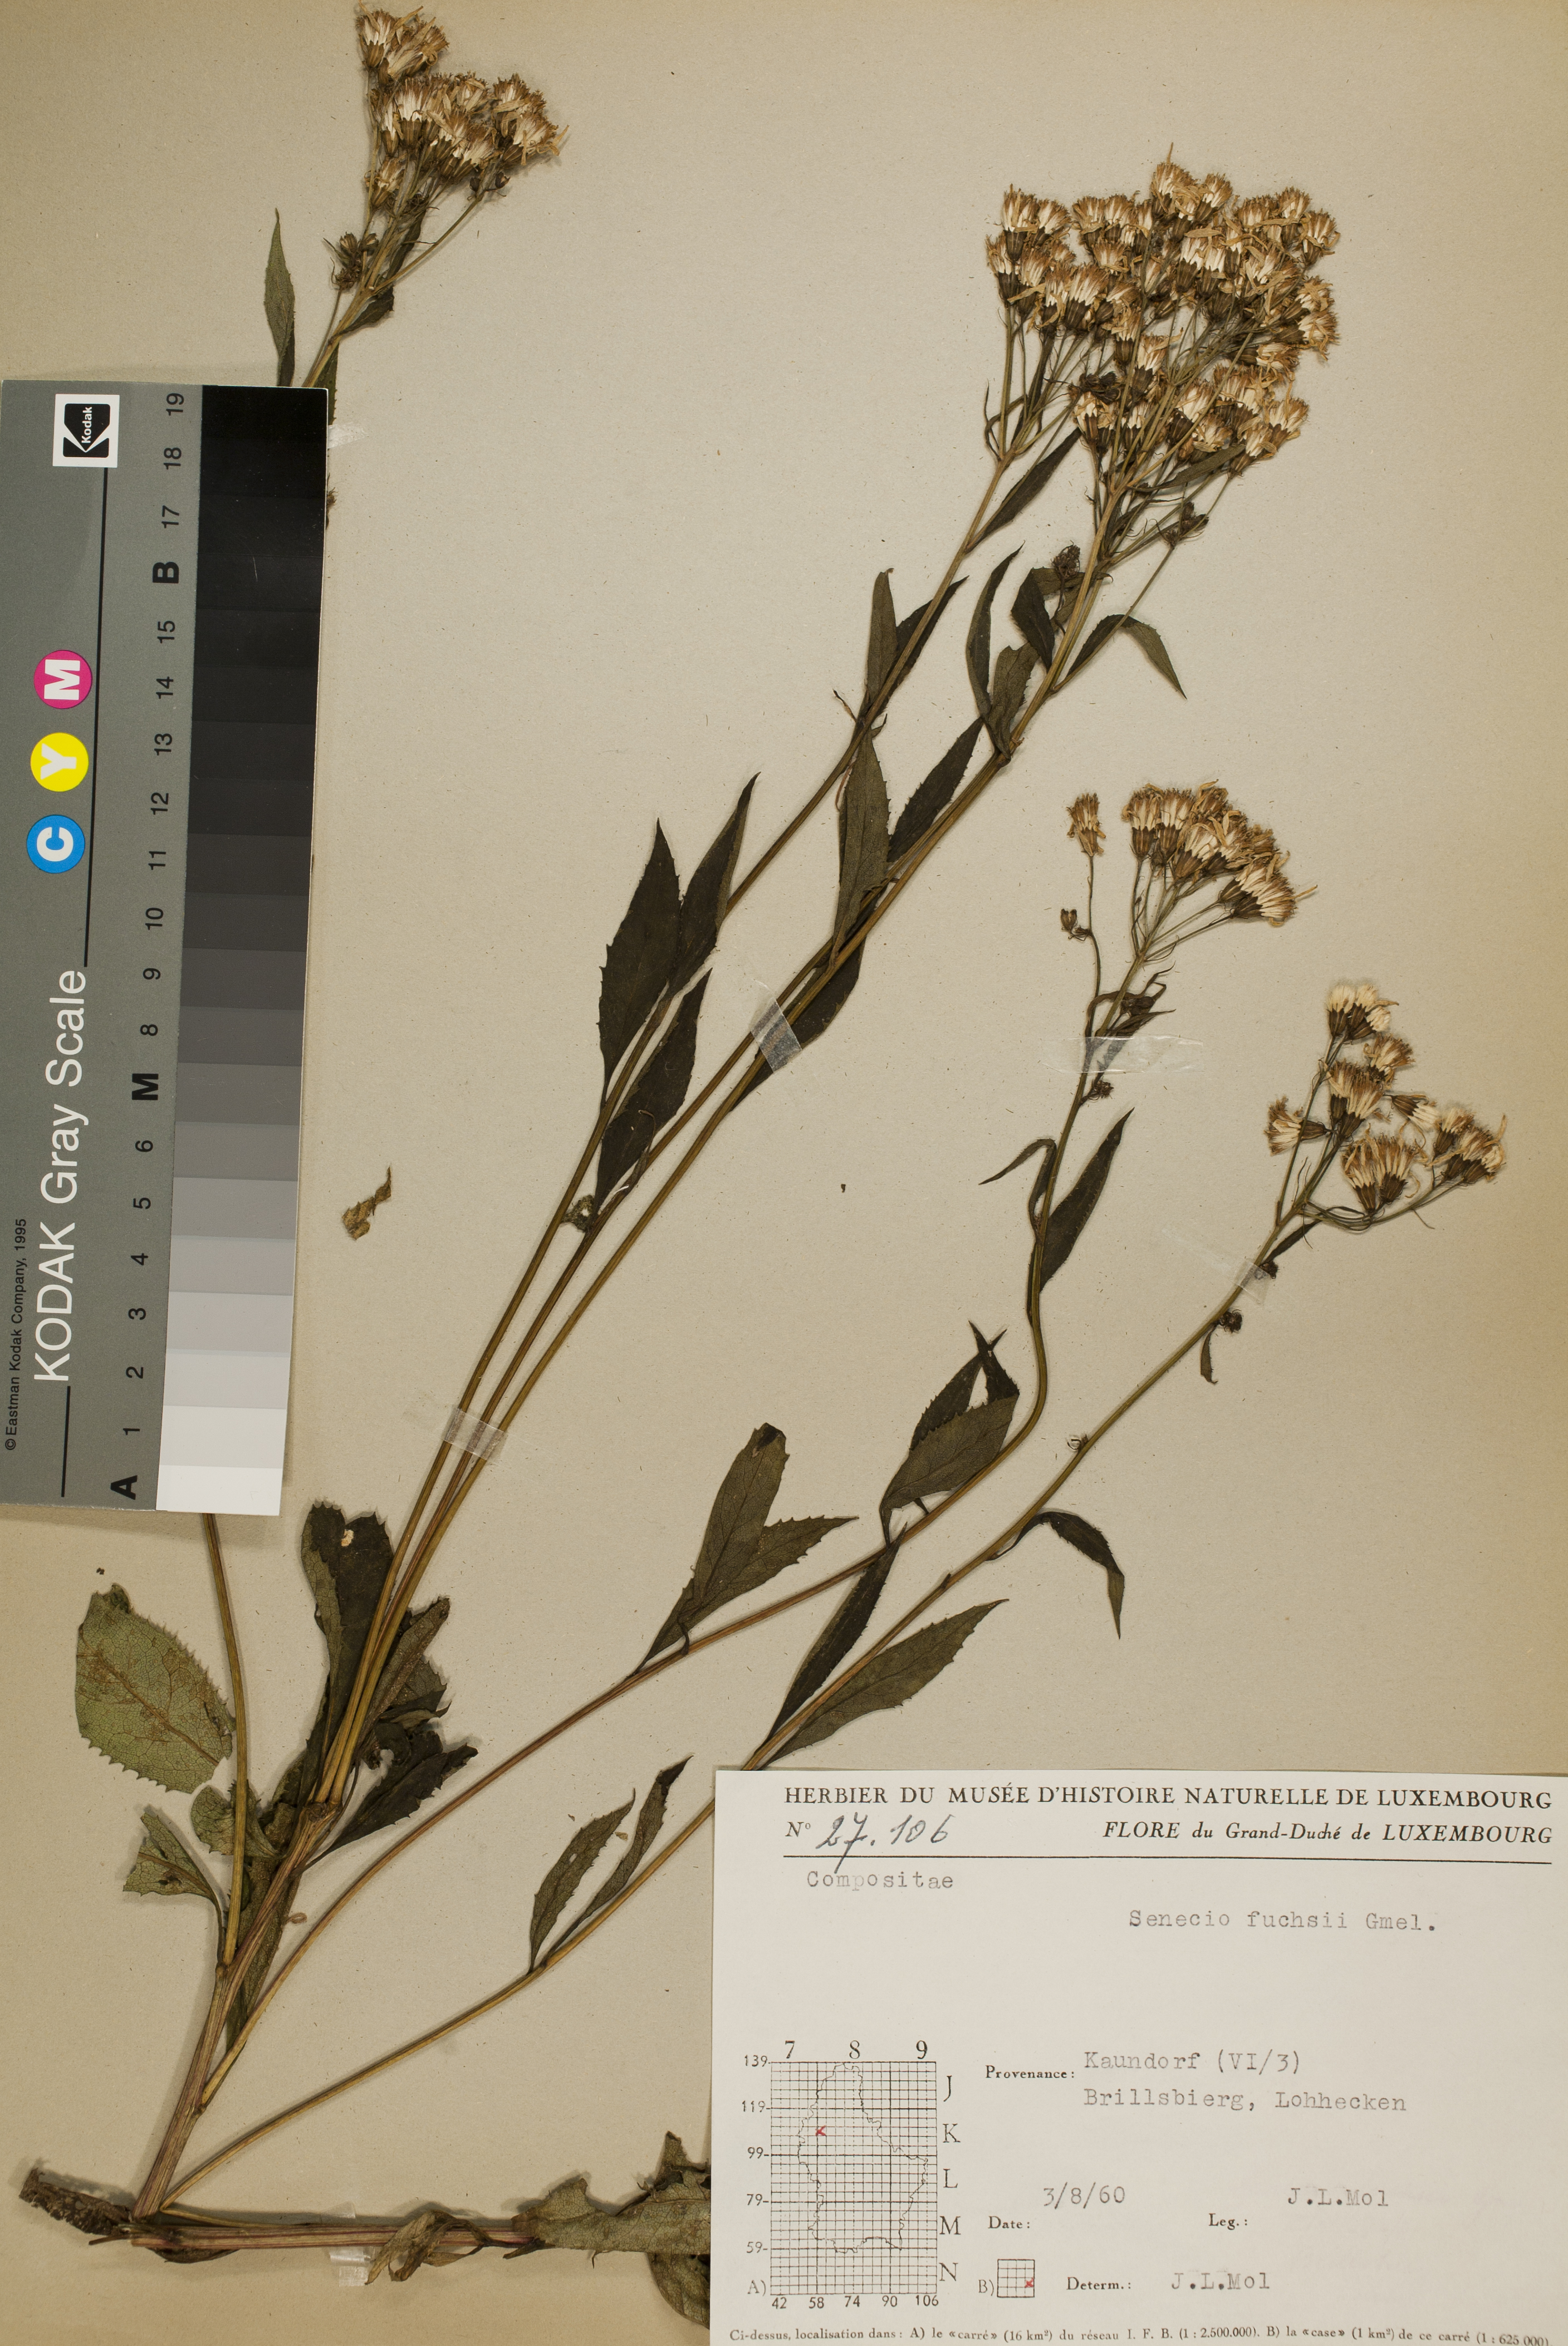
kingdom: Plantae
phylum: Tracheophyta
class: Magnoliopsida
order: Asterales
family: Asteraceae
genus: Senecio
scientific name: Senecio ovatus
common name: Wood ragwort
